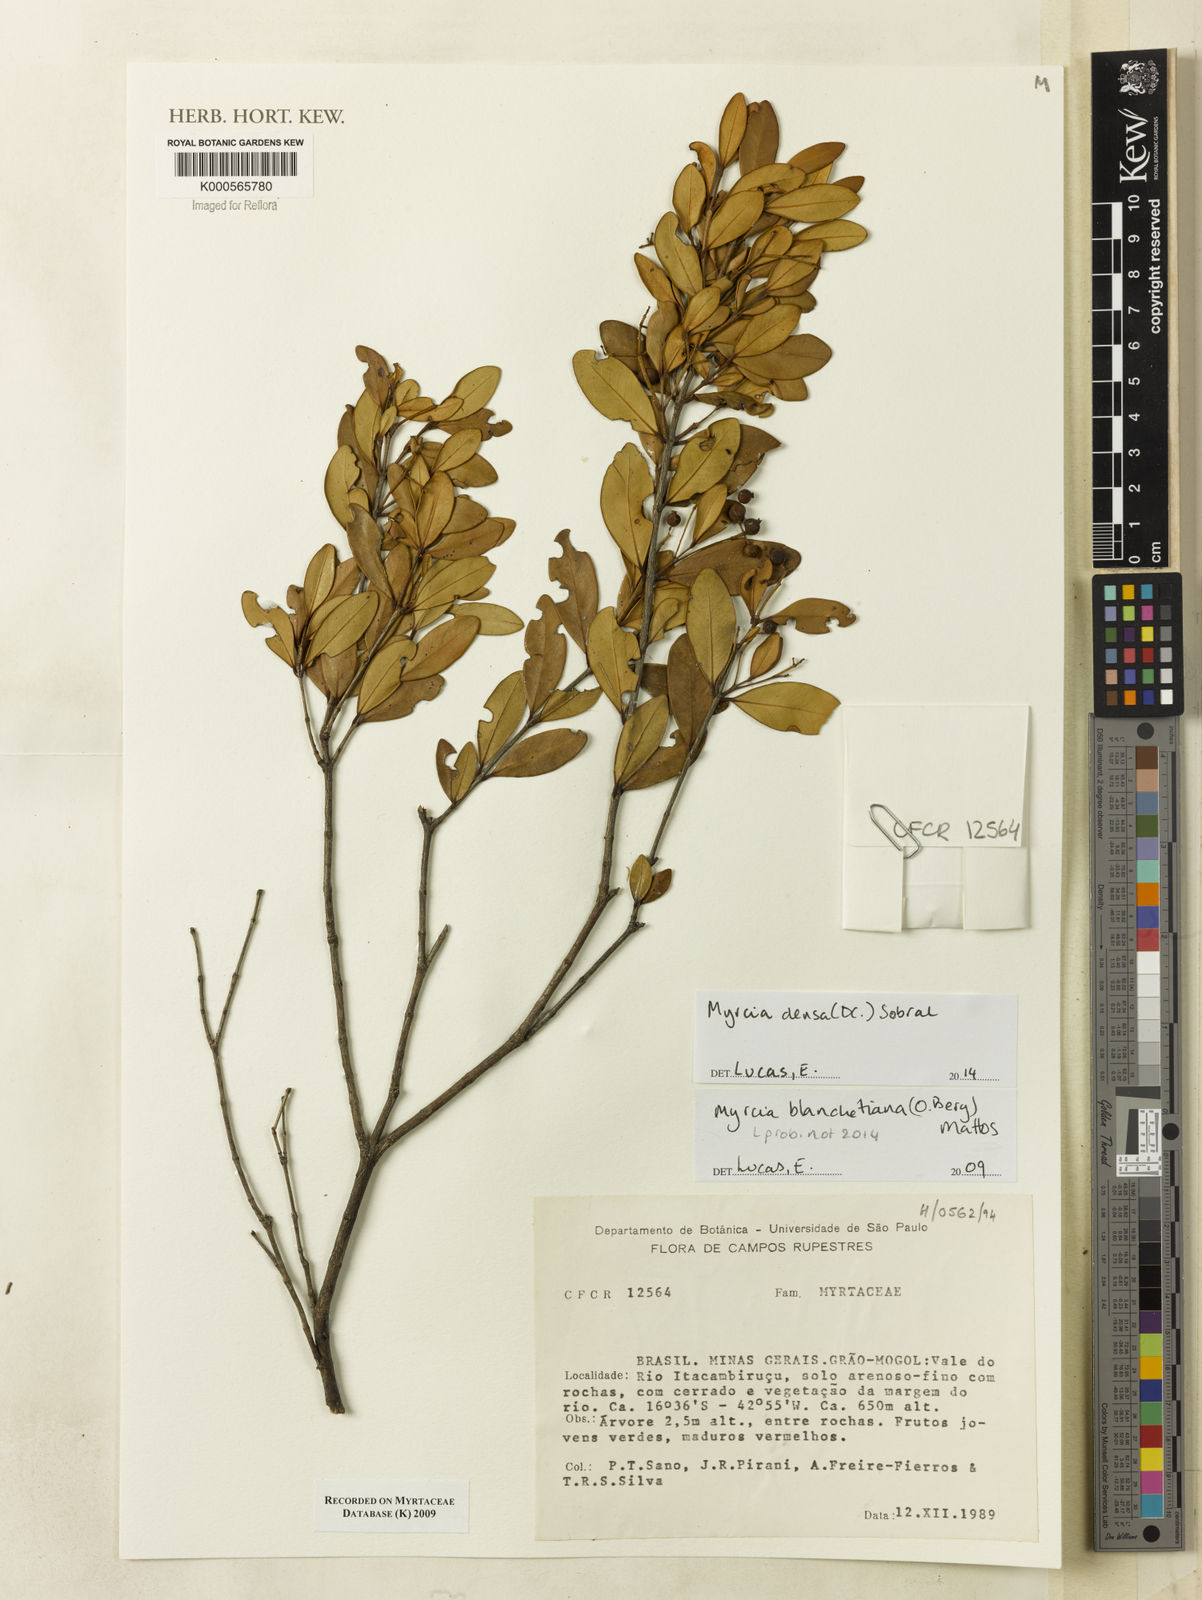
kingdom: Plantae
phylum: Tracheophyta
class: Magnoliopsida
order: Myrtales
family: Myrtaceae
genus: Myrcia
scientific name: Myrcia blanchetiana
